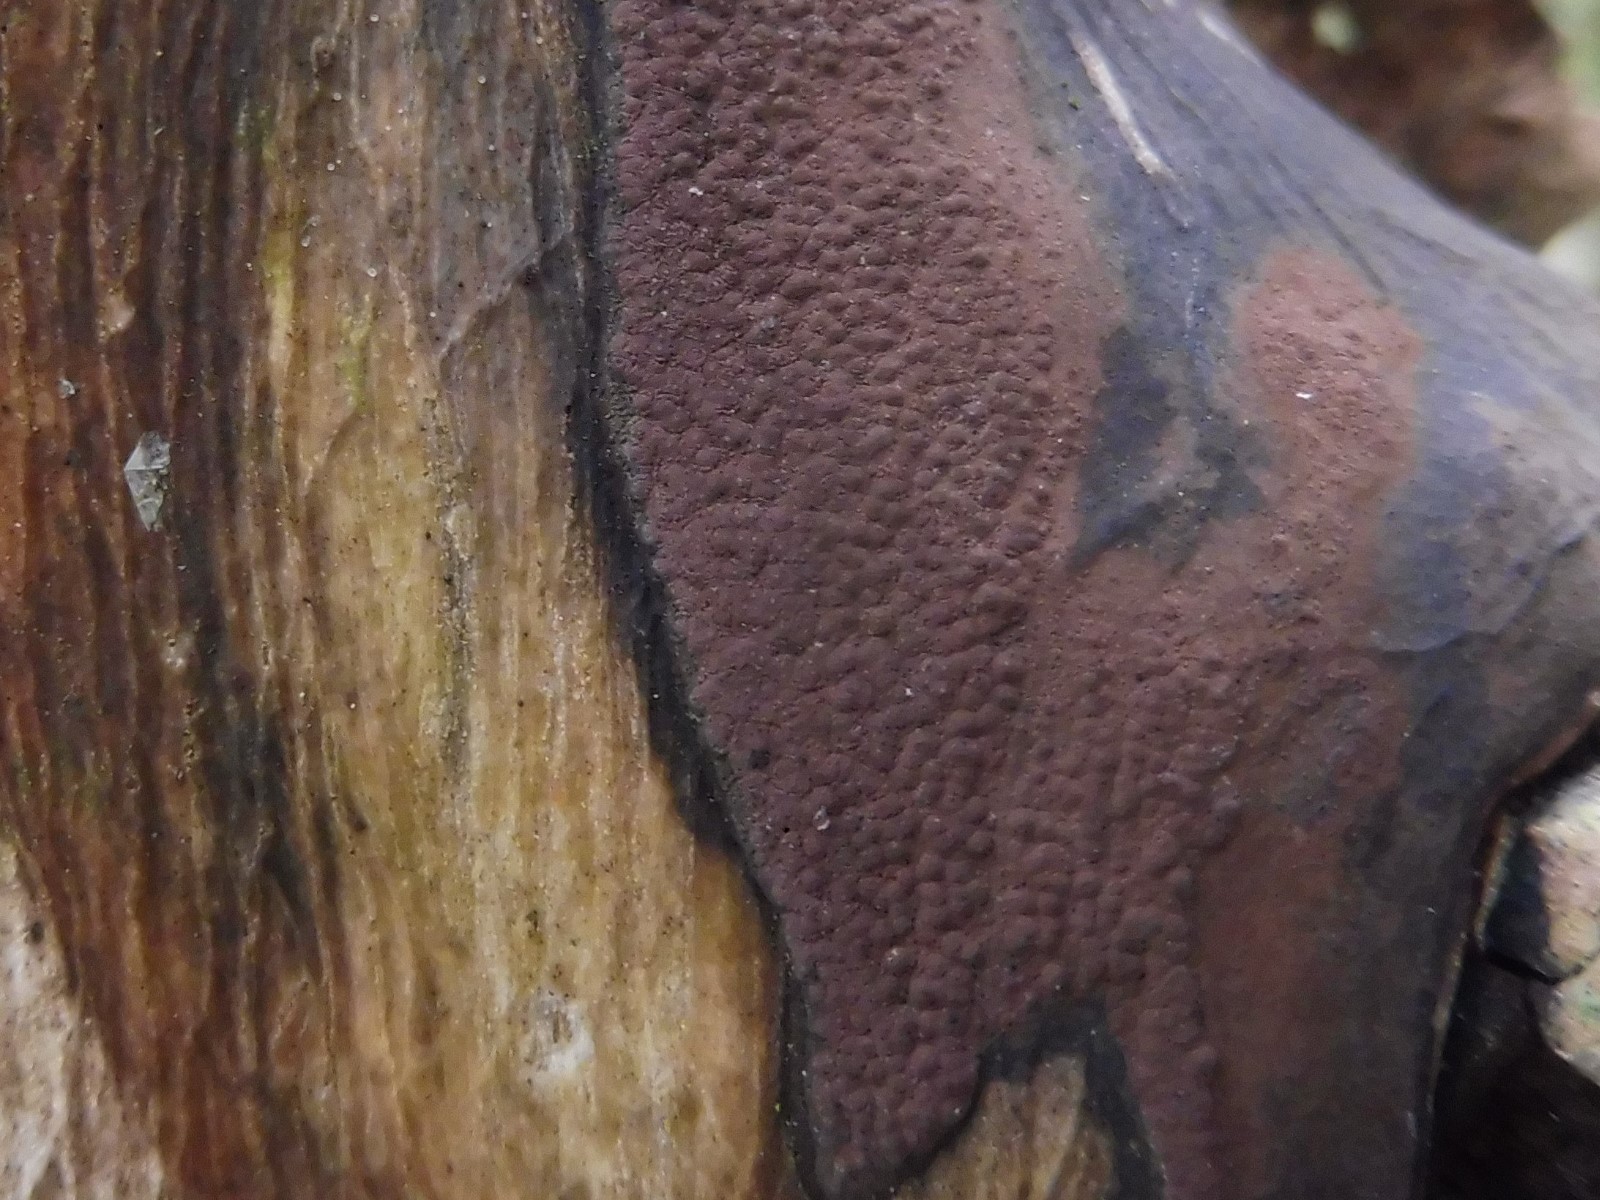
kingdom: Fungi
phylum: Ascomycota
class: Sordariomycetes
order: Xylariales
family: Hypoxylaceae
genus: Hypoxylon
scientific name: Hypoxylon petriniae
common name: nedsænket kulbær
